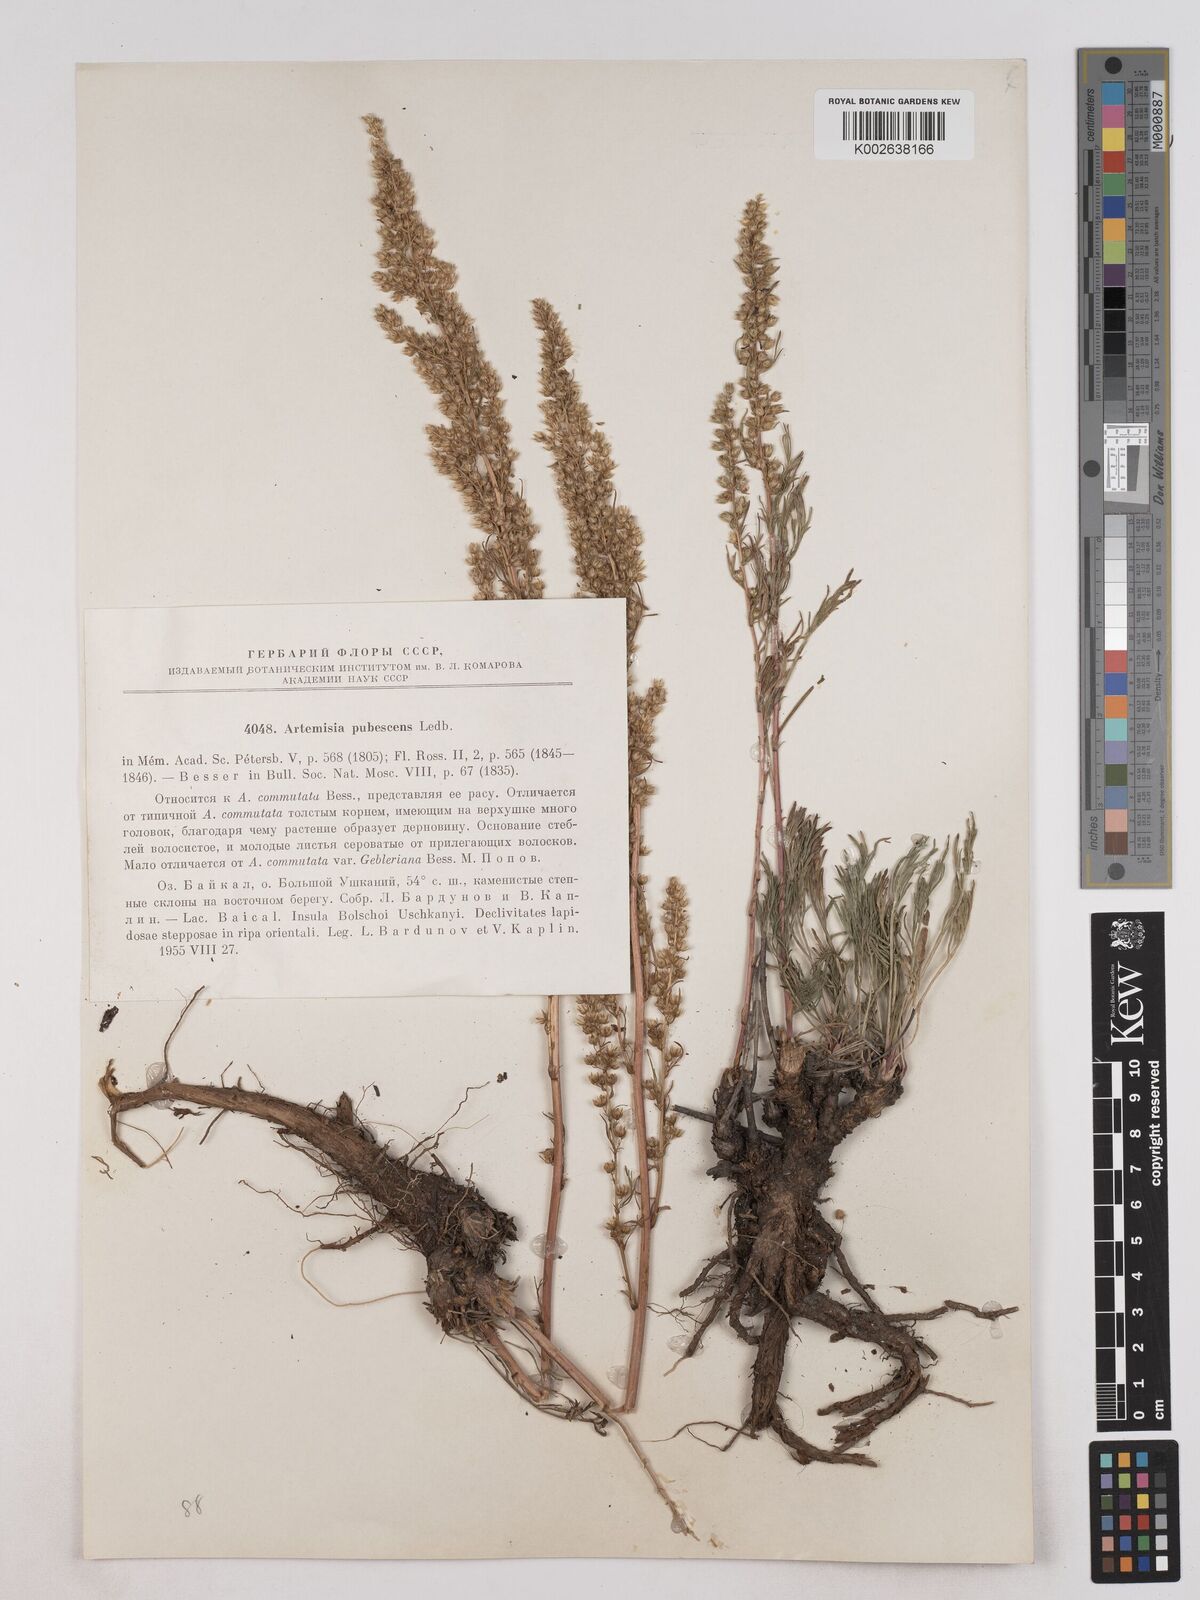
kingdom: Plantae
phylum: Tracheophyta
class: Magnoliopsida
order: Asterales
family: Asteraceae
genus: Artemisia
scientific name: Artemisia pubescens
